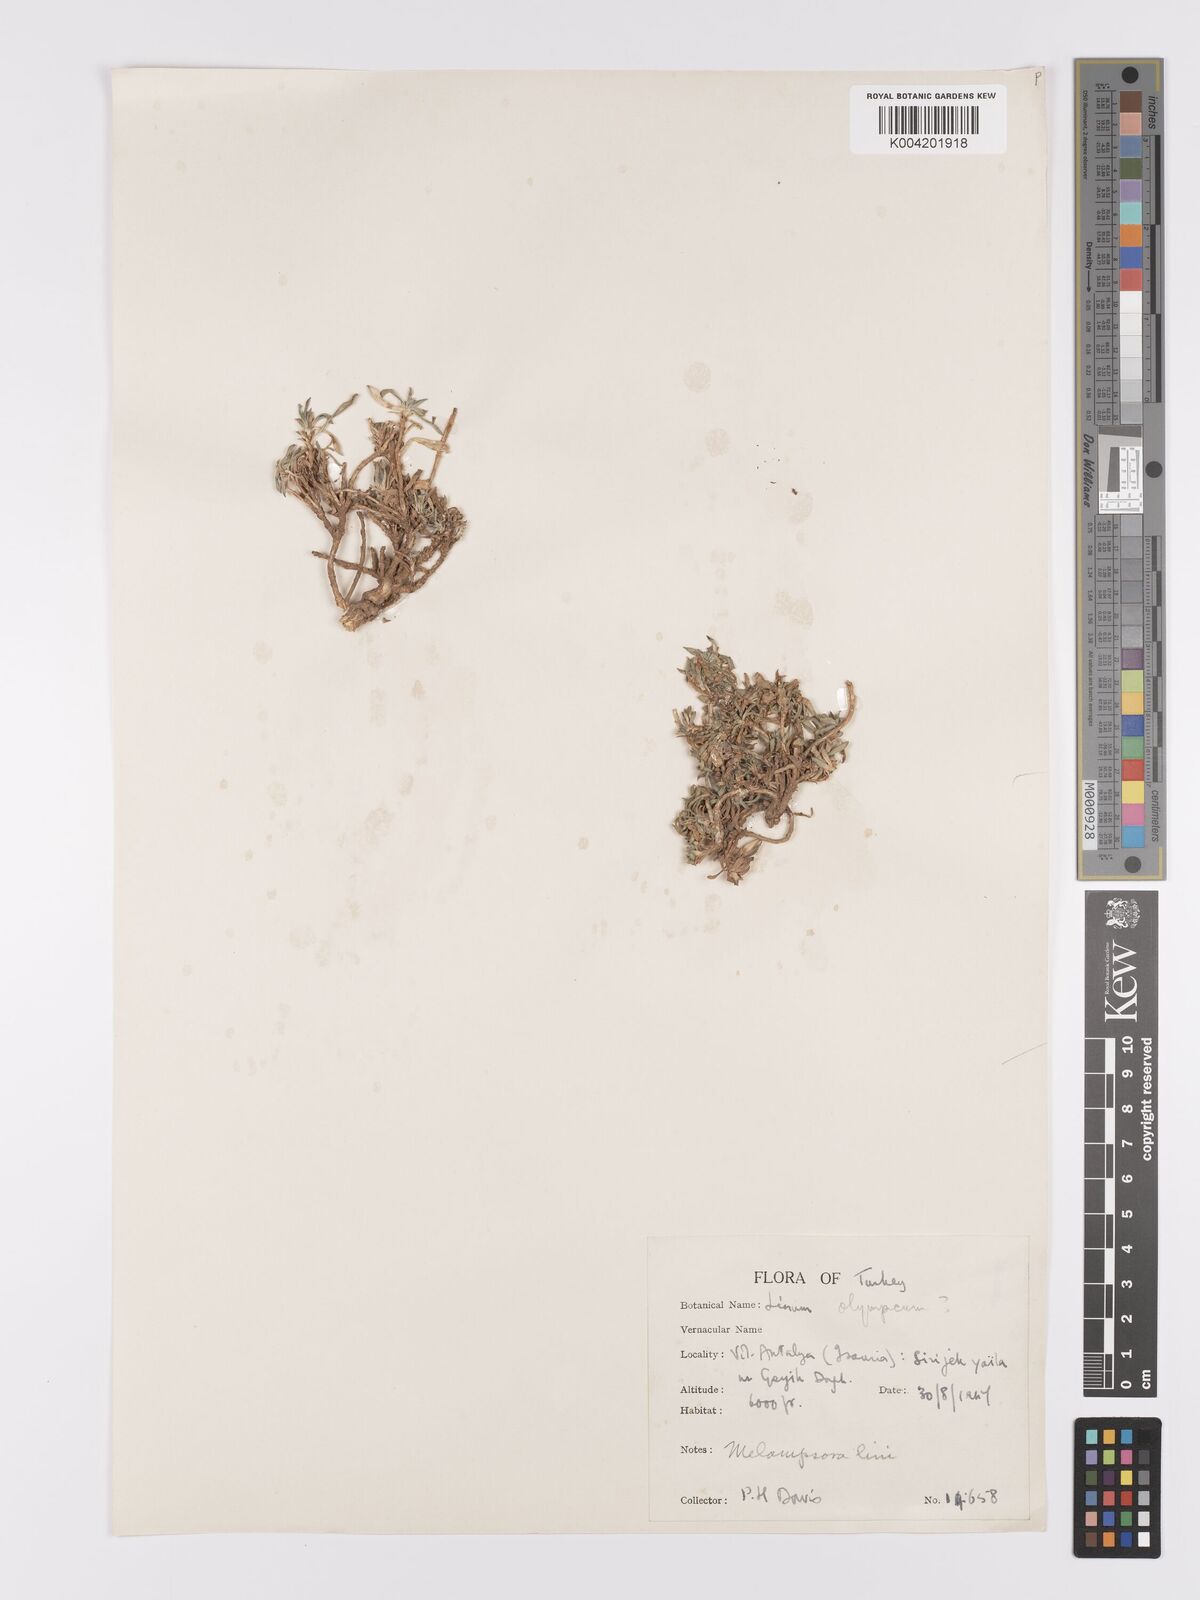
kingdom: Plantae
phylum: Tracheophyta
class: Magnoliopsida
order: Malpighiales
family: Linaceae
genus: Linum
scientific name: Linum
